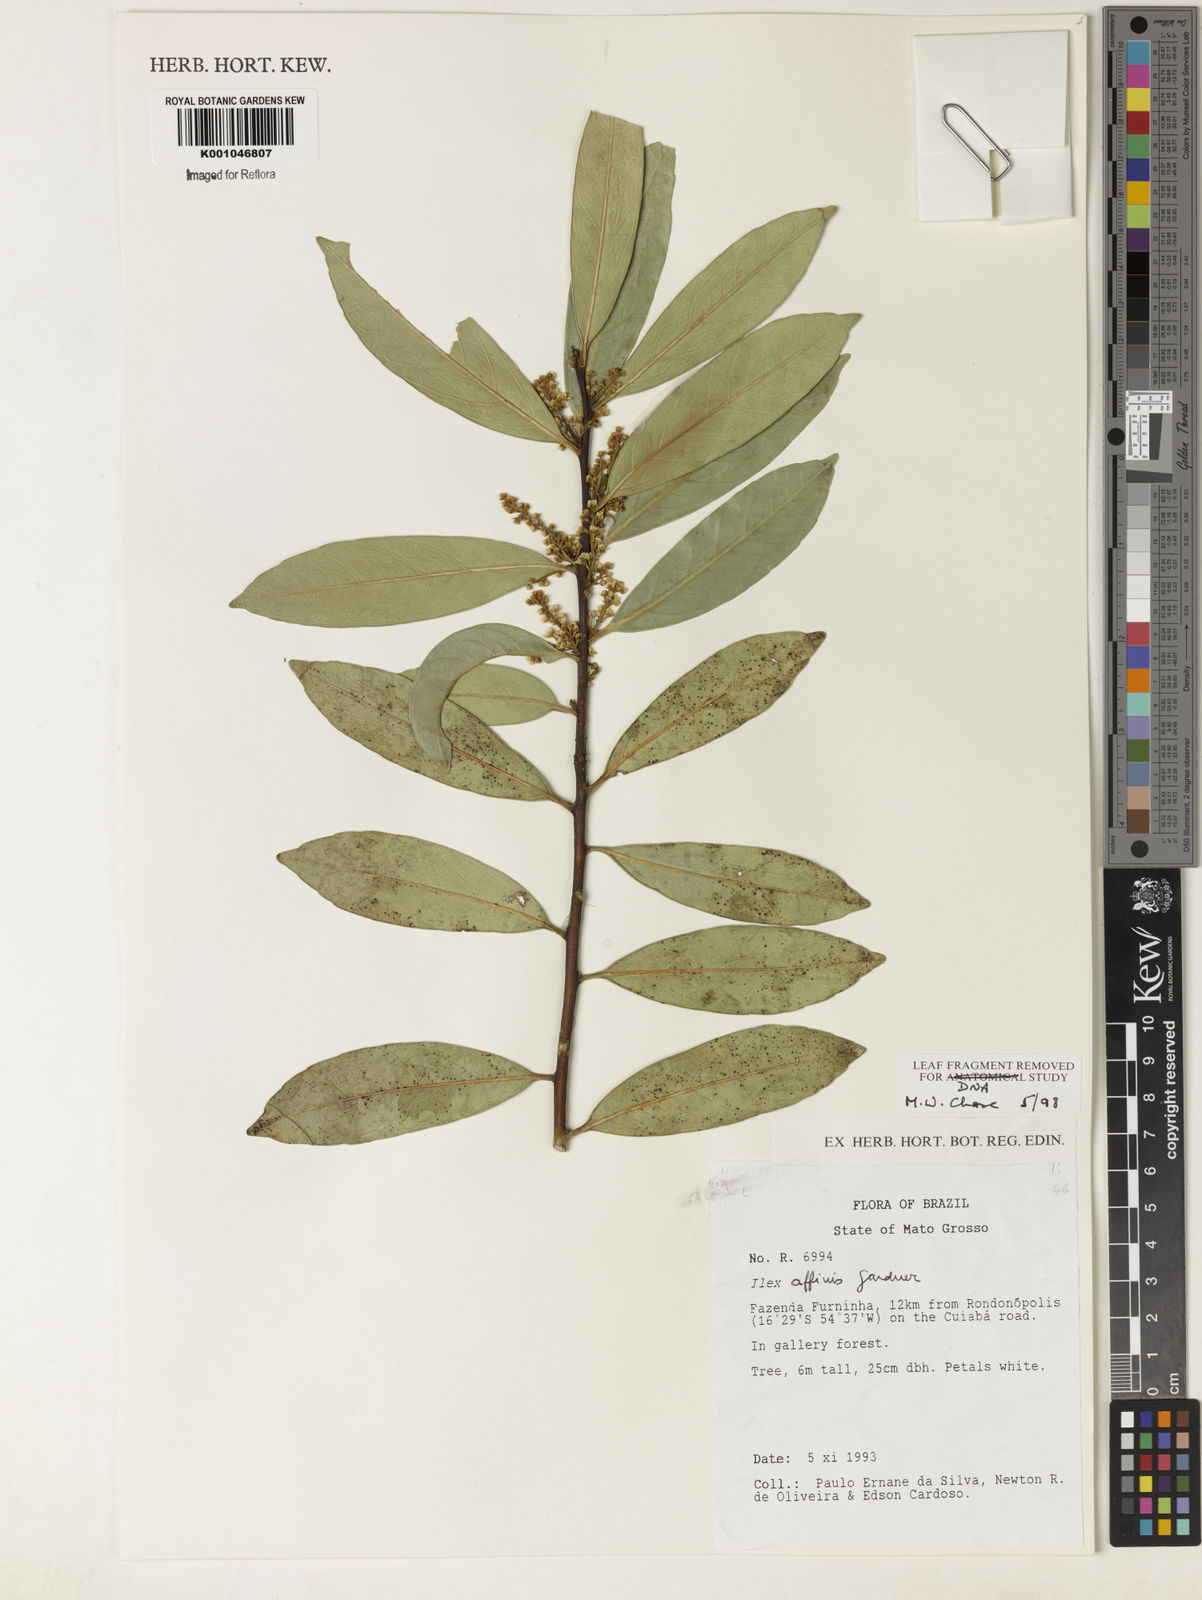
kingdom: Plantae
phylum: Tracheophyta
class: Magnoliopsida
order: Aquifoliales
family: Aquifoliaceae
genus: Ilex
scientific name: Ilex affinis
